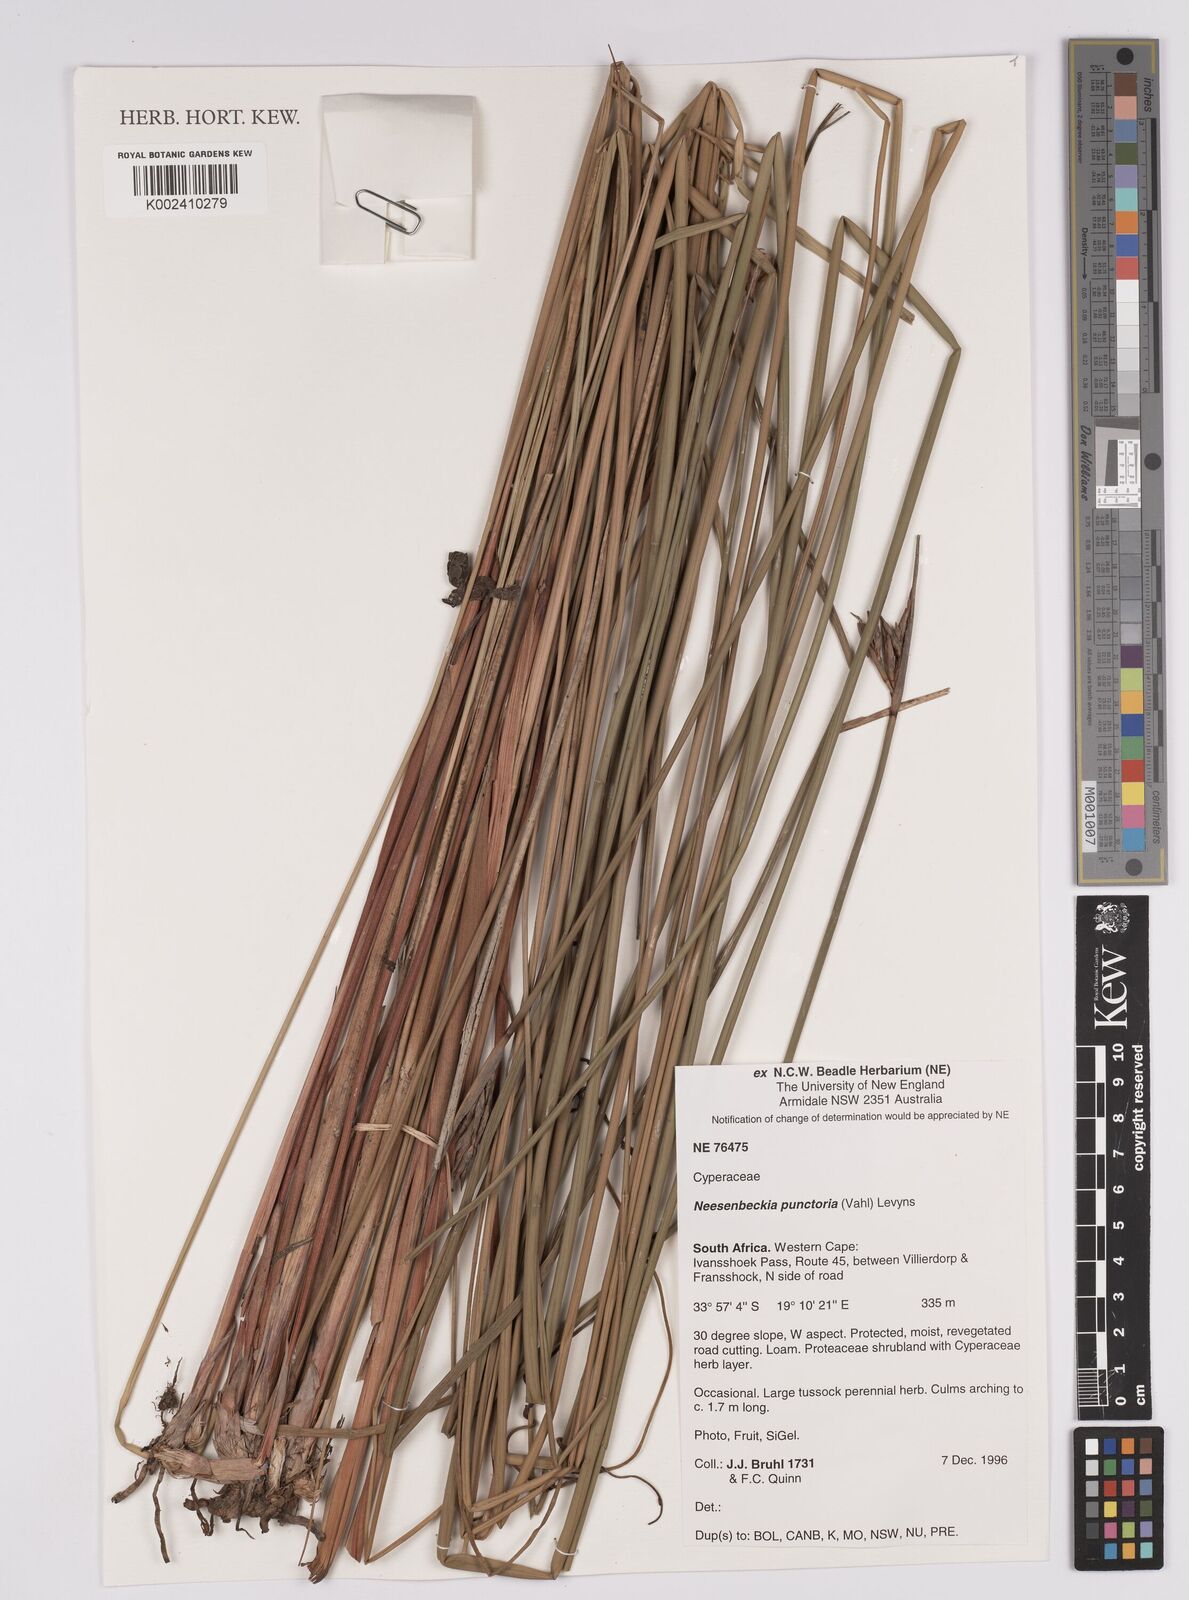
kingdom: Plantae
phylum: Tracheophyta
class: Liliopsida
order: Poales
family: Cyperaceae
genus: Neesenbeckia
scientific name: Neesenbeckia punctoria
